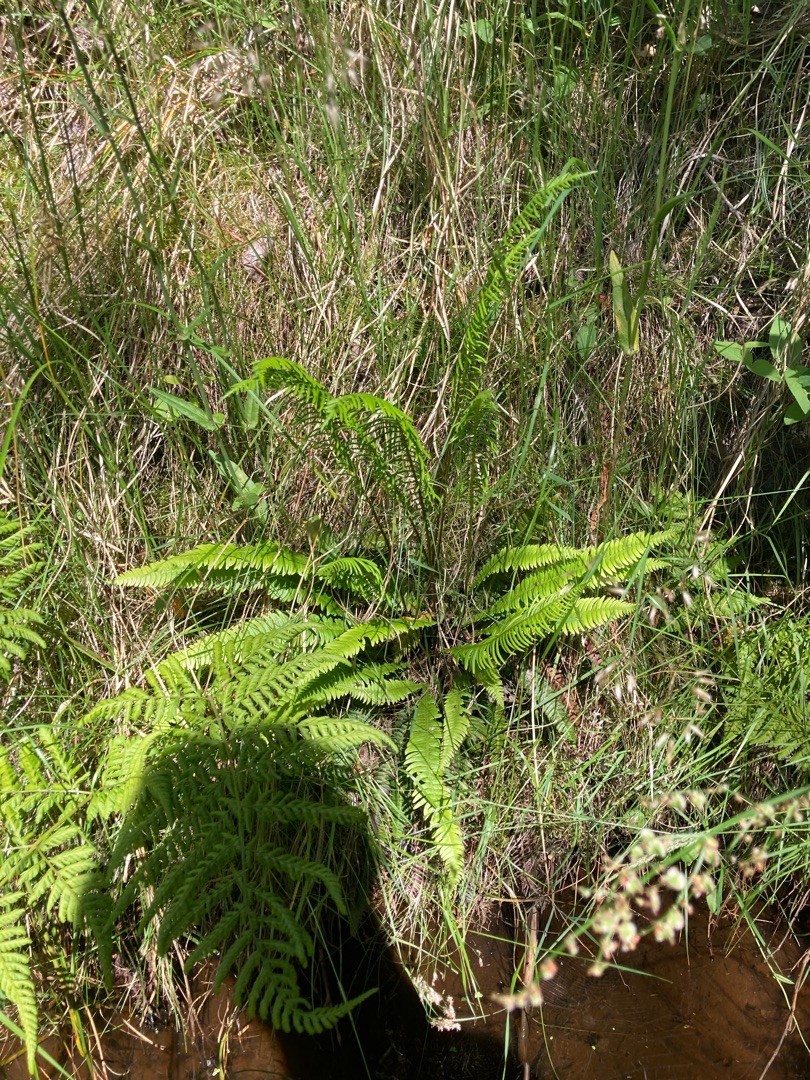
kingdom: Plantae
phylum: Tracheophyta
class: Polypodiopsida
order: Polypodiales
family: Blechnaceae
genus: Struthiopteris
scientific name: Struthiopteris spicant
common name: Kambregne
